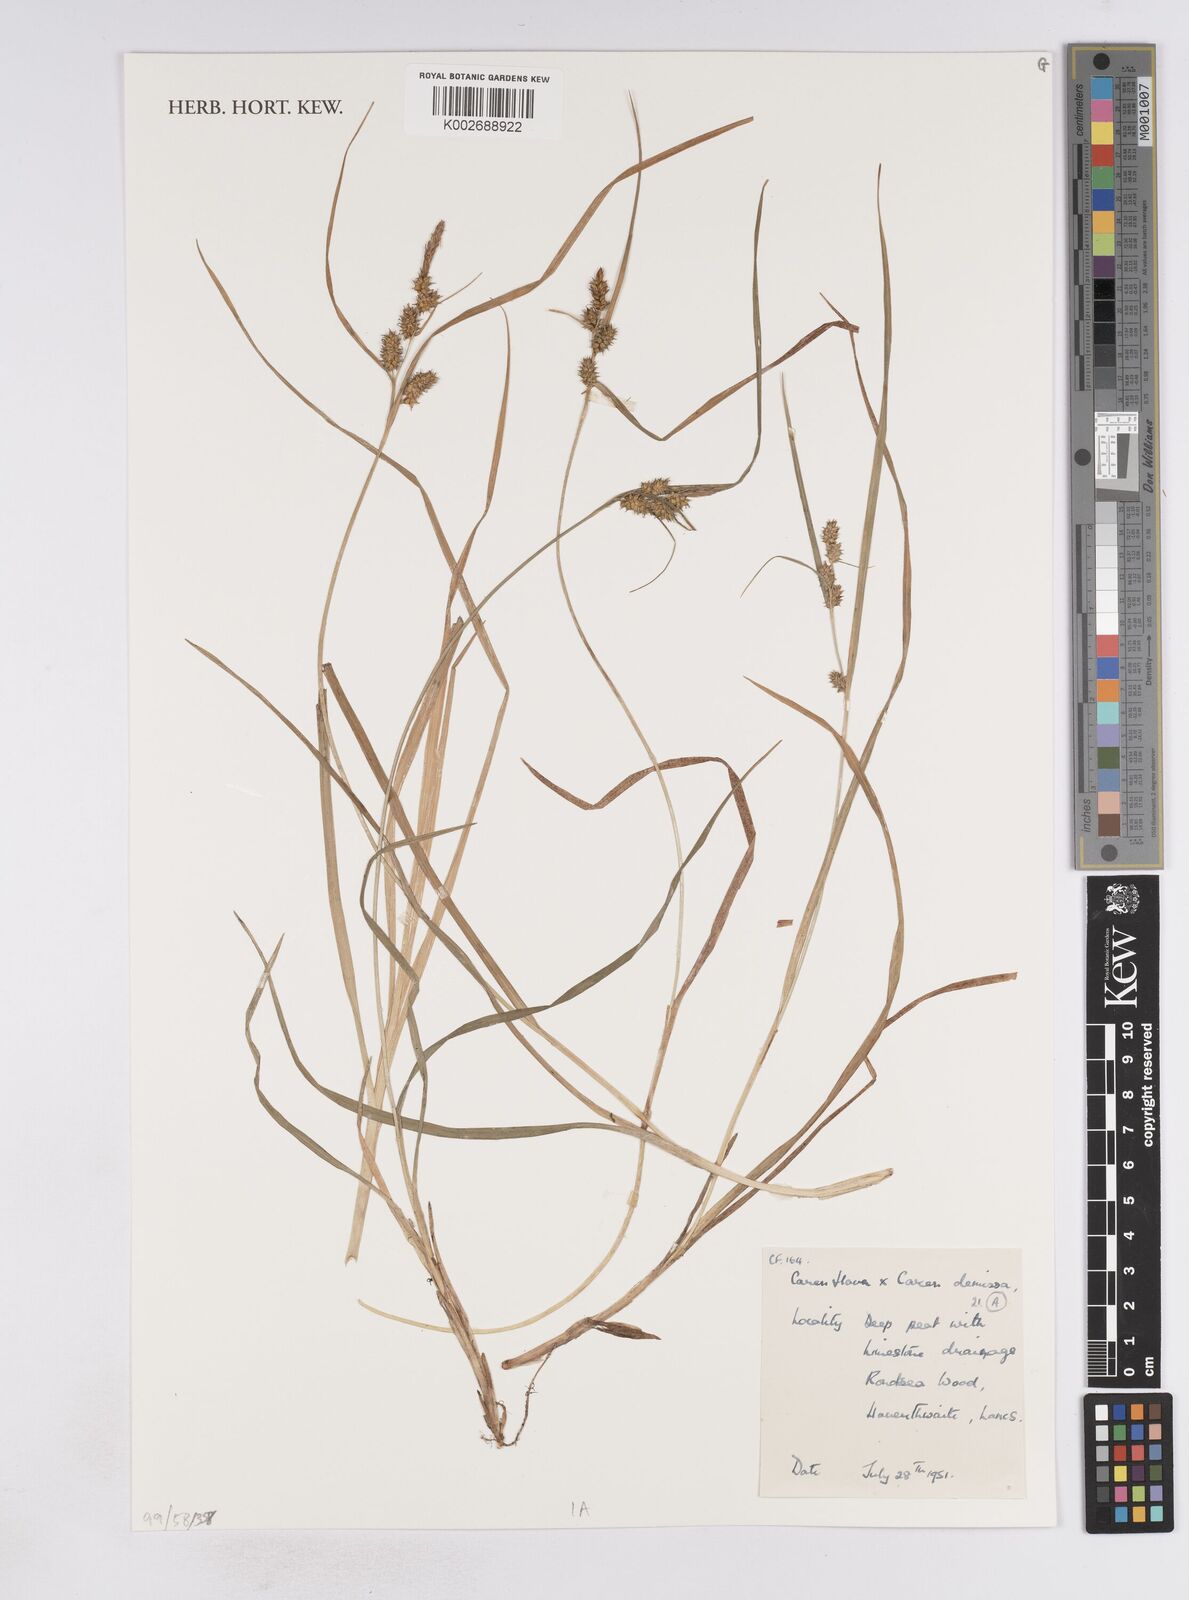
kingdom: Plantae
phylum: Tracheophyta
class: Liliopsida
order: Poales
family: Cyperaceae
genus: Carex
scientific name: Carex demissa
